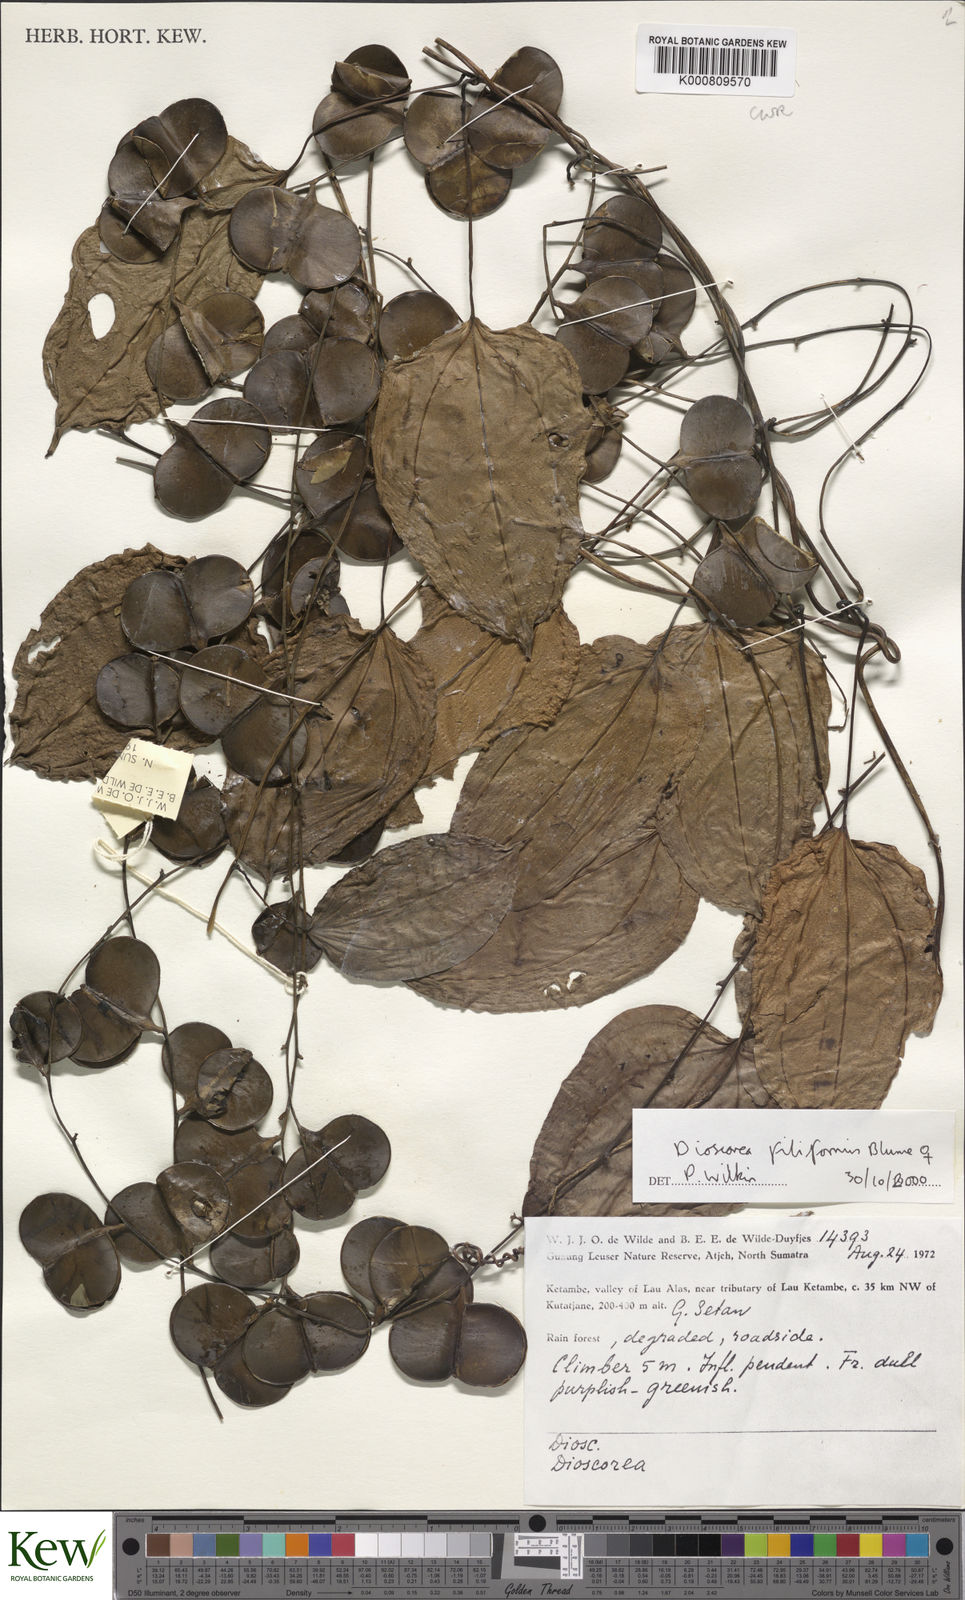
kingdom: Plantae
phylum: Tracheophyta
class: Liliopsida
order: Dioscoreales
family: Dioscoreaceae
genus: Dioscorea
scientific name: Dioscorea filiformis
